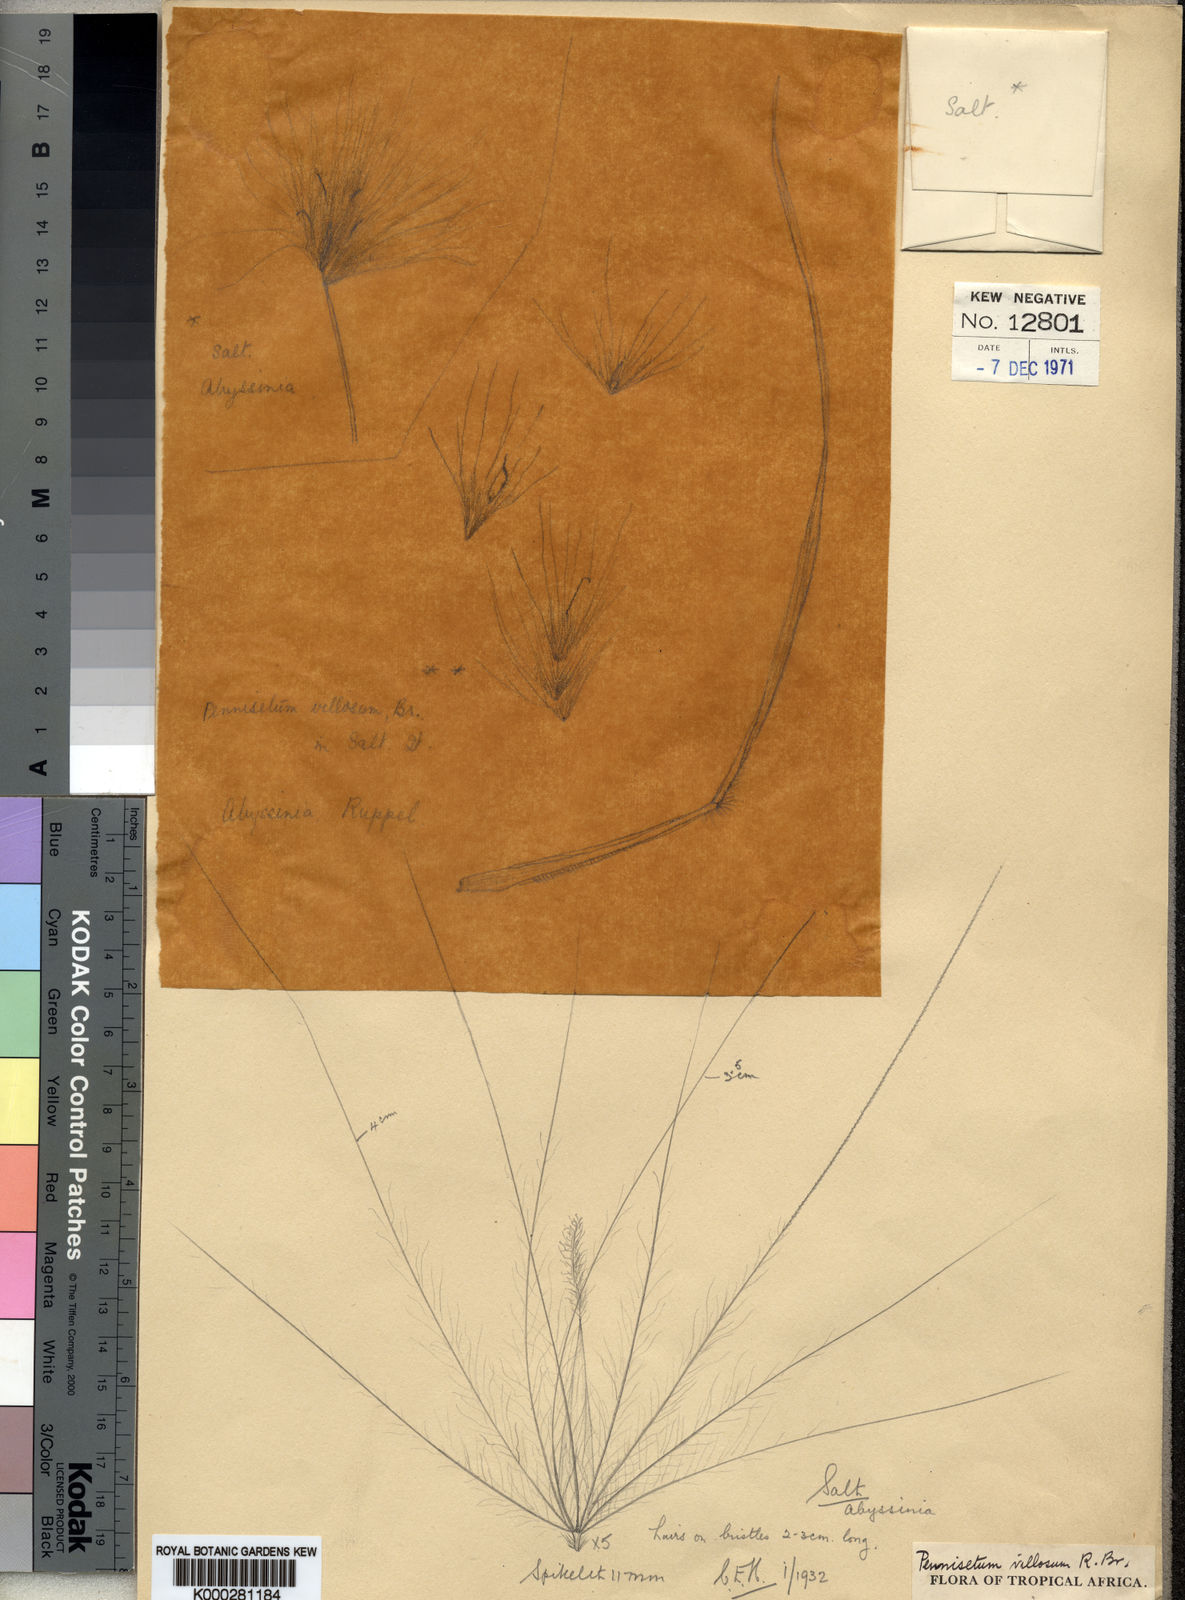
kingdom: Plantae
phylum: Tracheophyta
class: Liliopsida
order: Poales
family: Poaceae
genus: Cenchrus
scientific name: Cenchrus longisetus
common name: Feathertop
